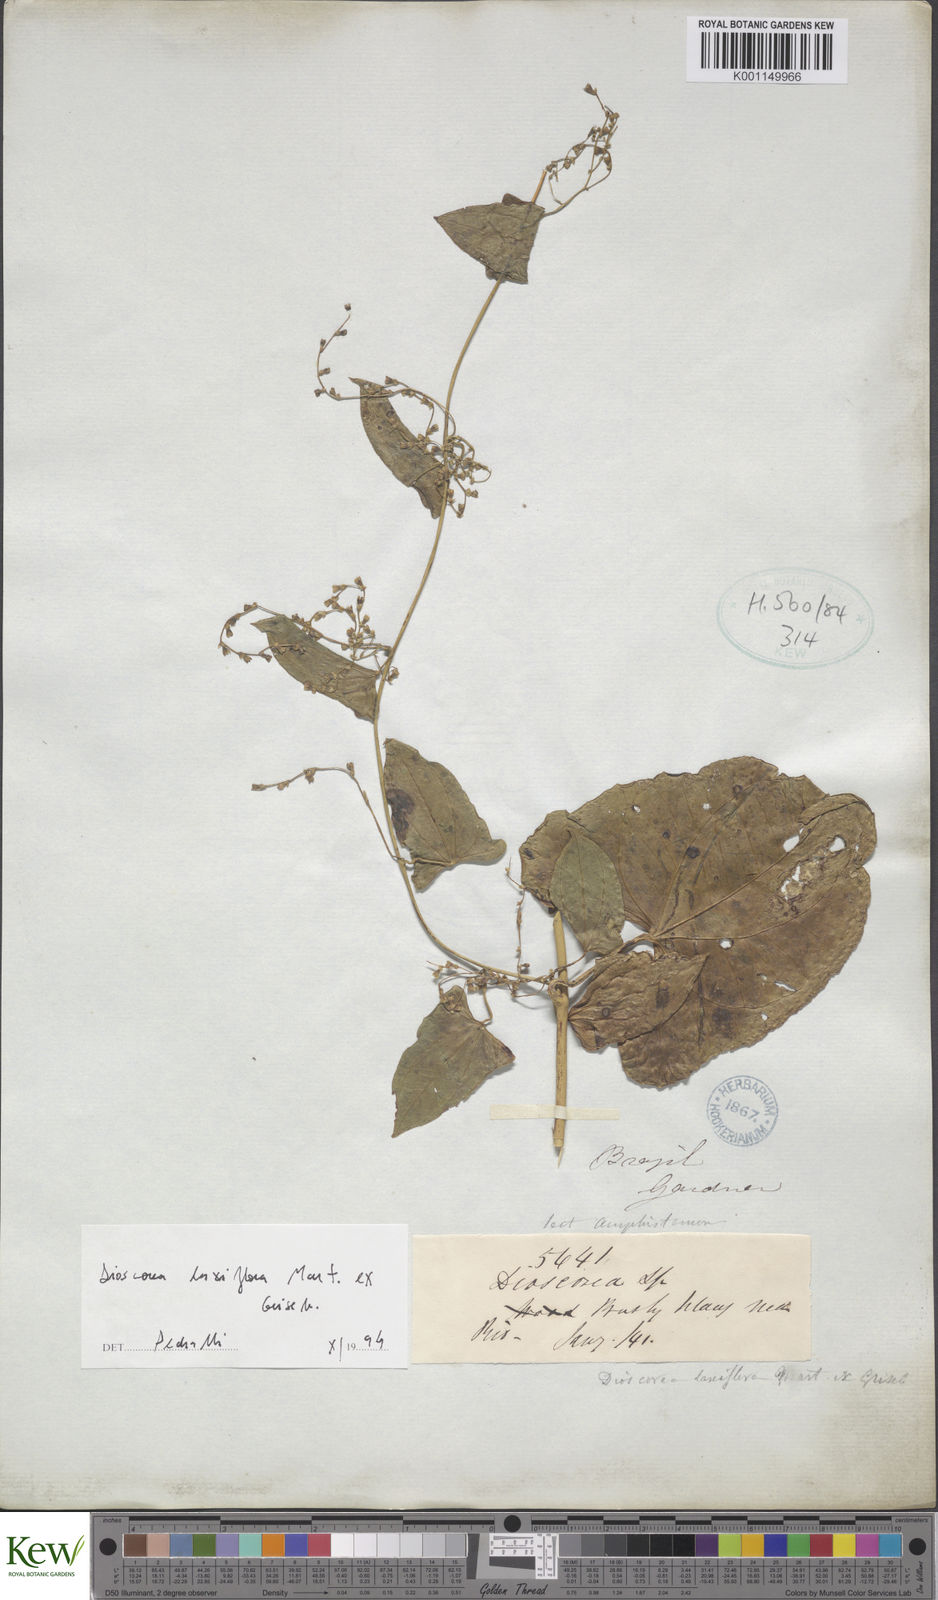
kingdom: Plantae
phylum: Tracheophyta
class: Liliopsida
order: Dioscoreales
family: Dioscoreaceae
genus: Dioscorea
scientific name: Dioscorea laxiflora
